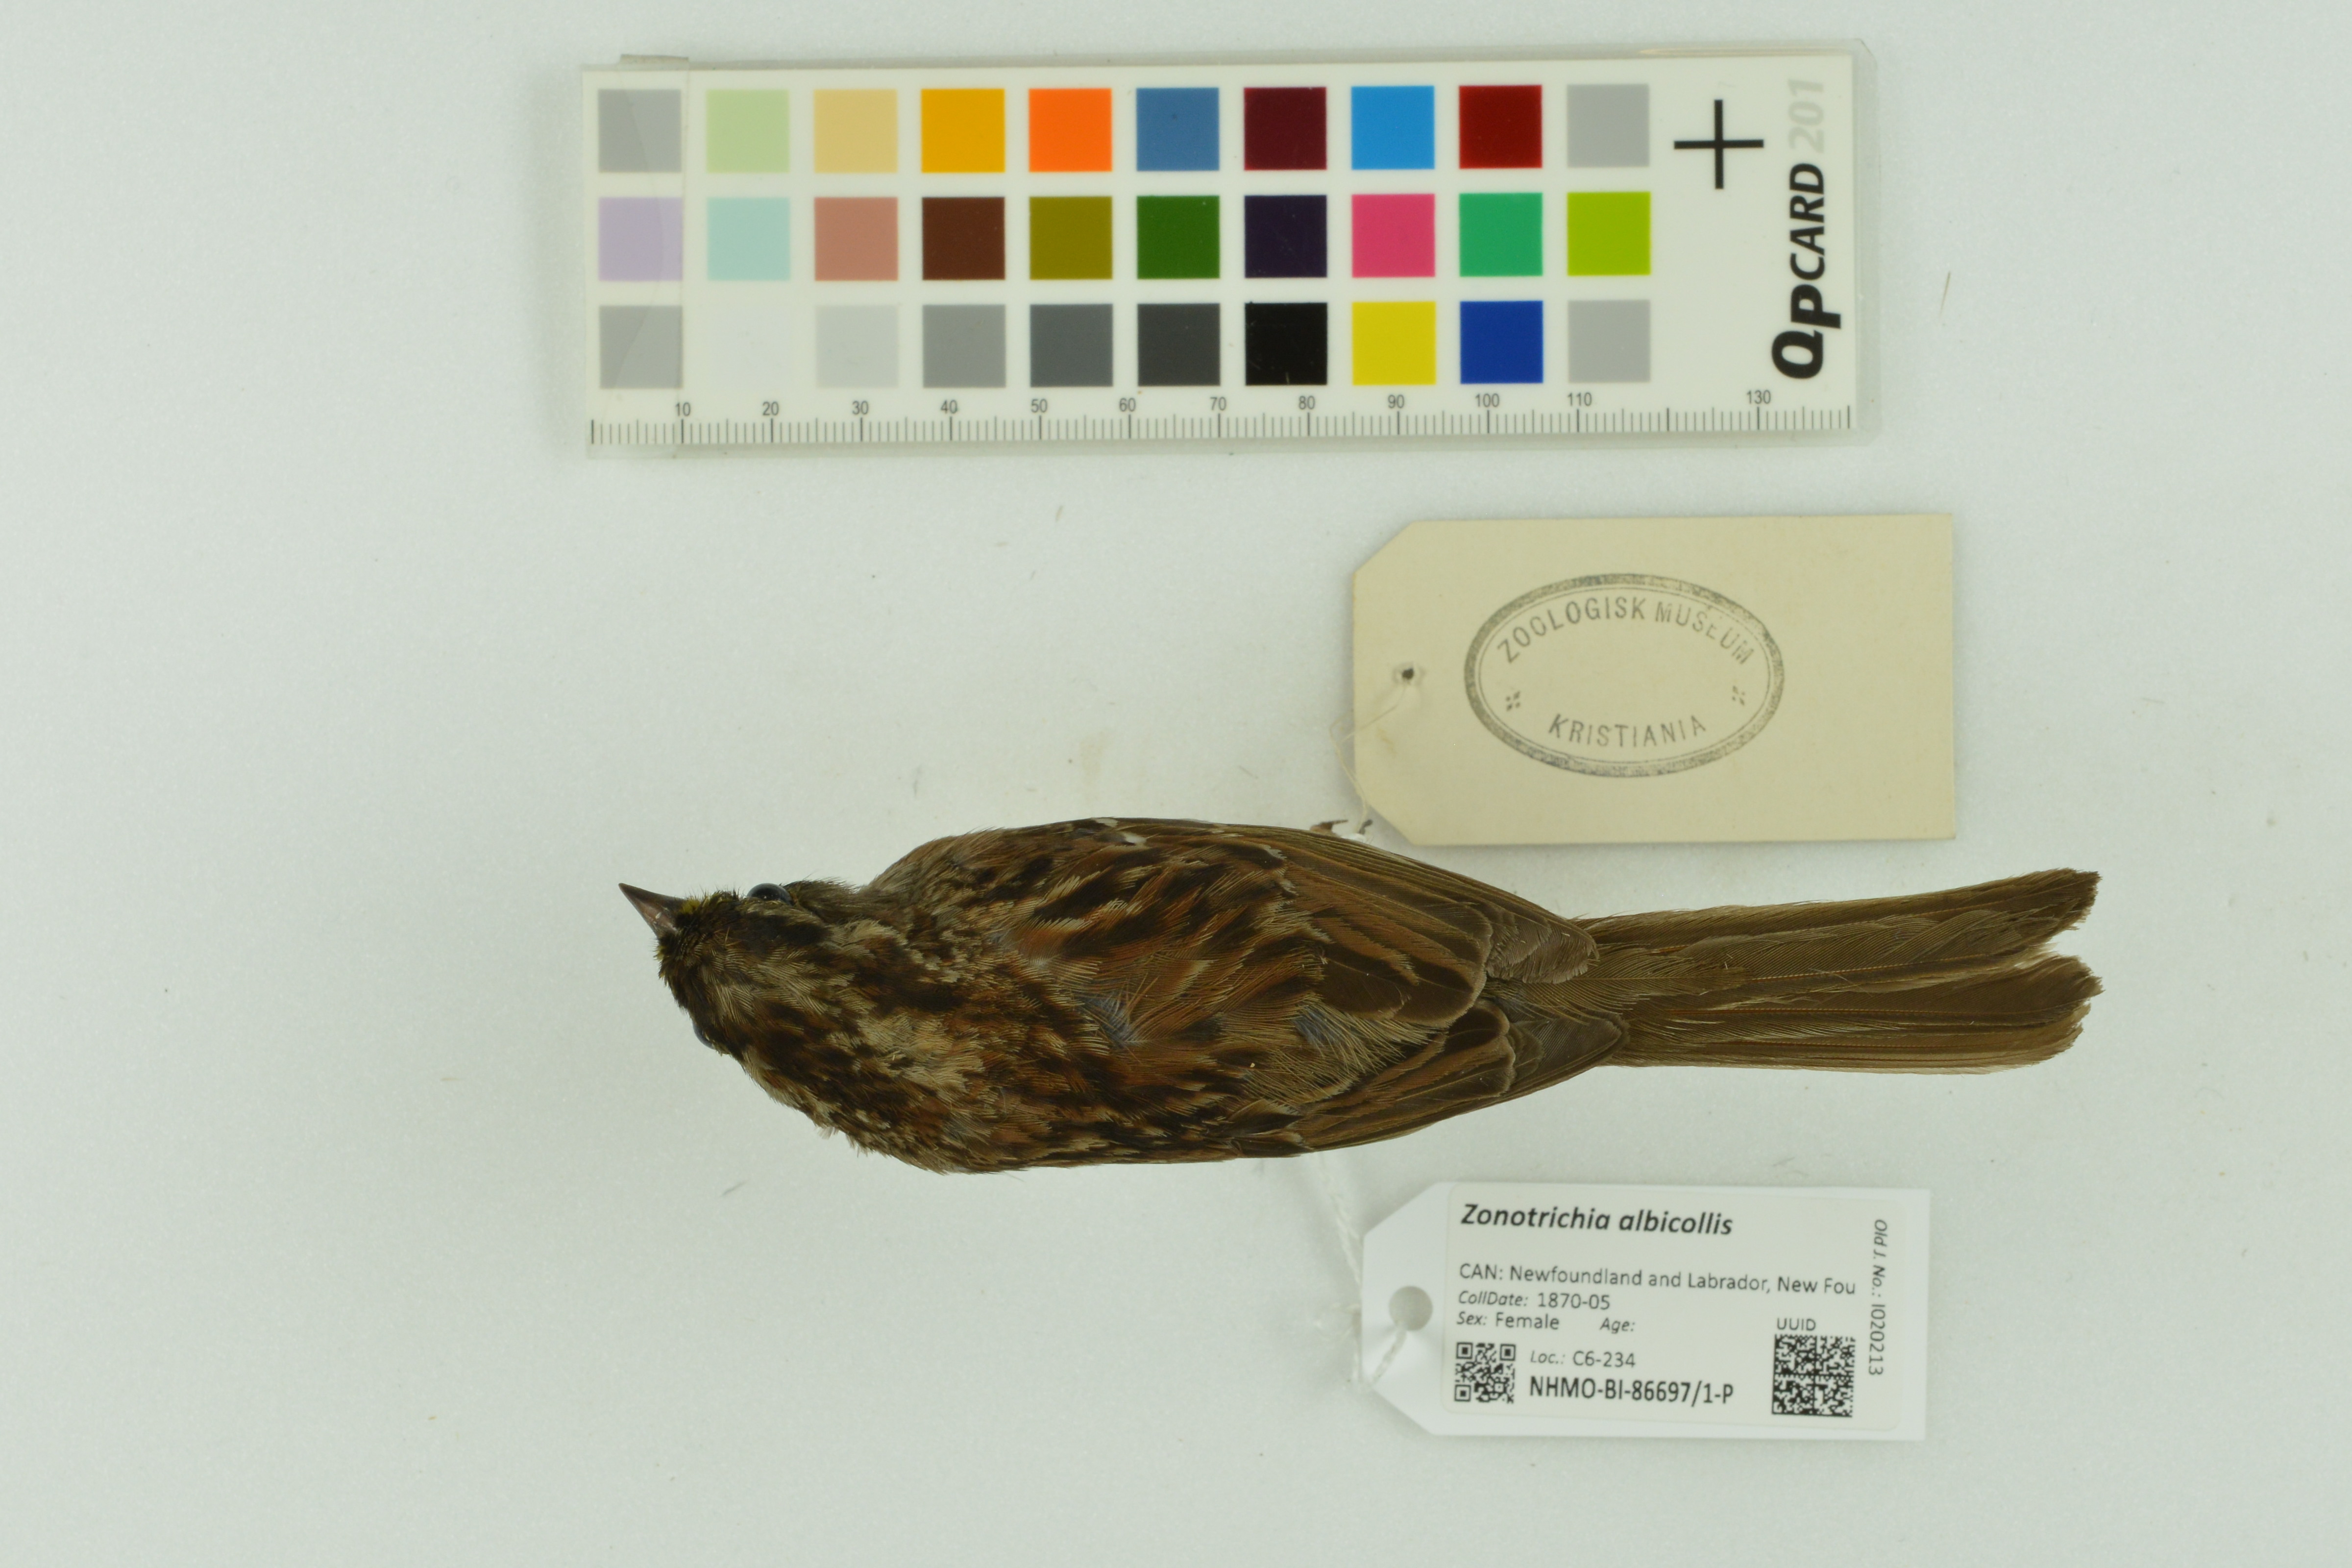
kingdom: Animalia
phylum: Chordata
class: Aves
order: Passeriformes
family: Passerellidae
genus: Zonotrichia
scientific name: Zonotrichia albicollis
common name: White-throated sparrow
